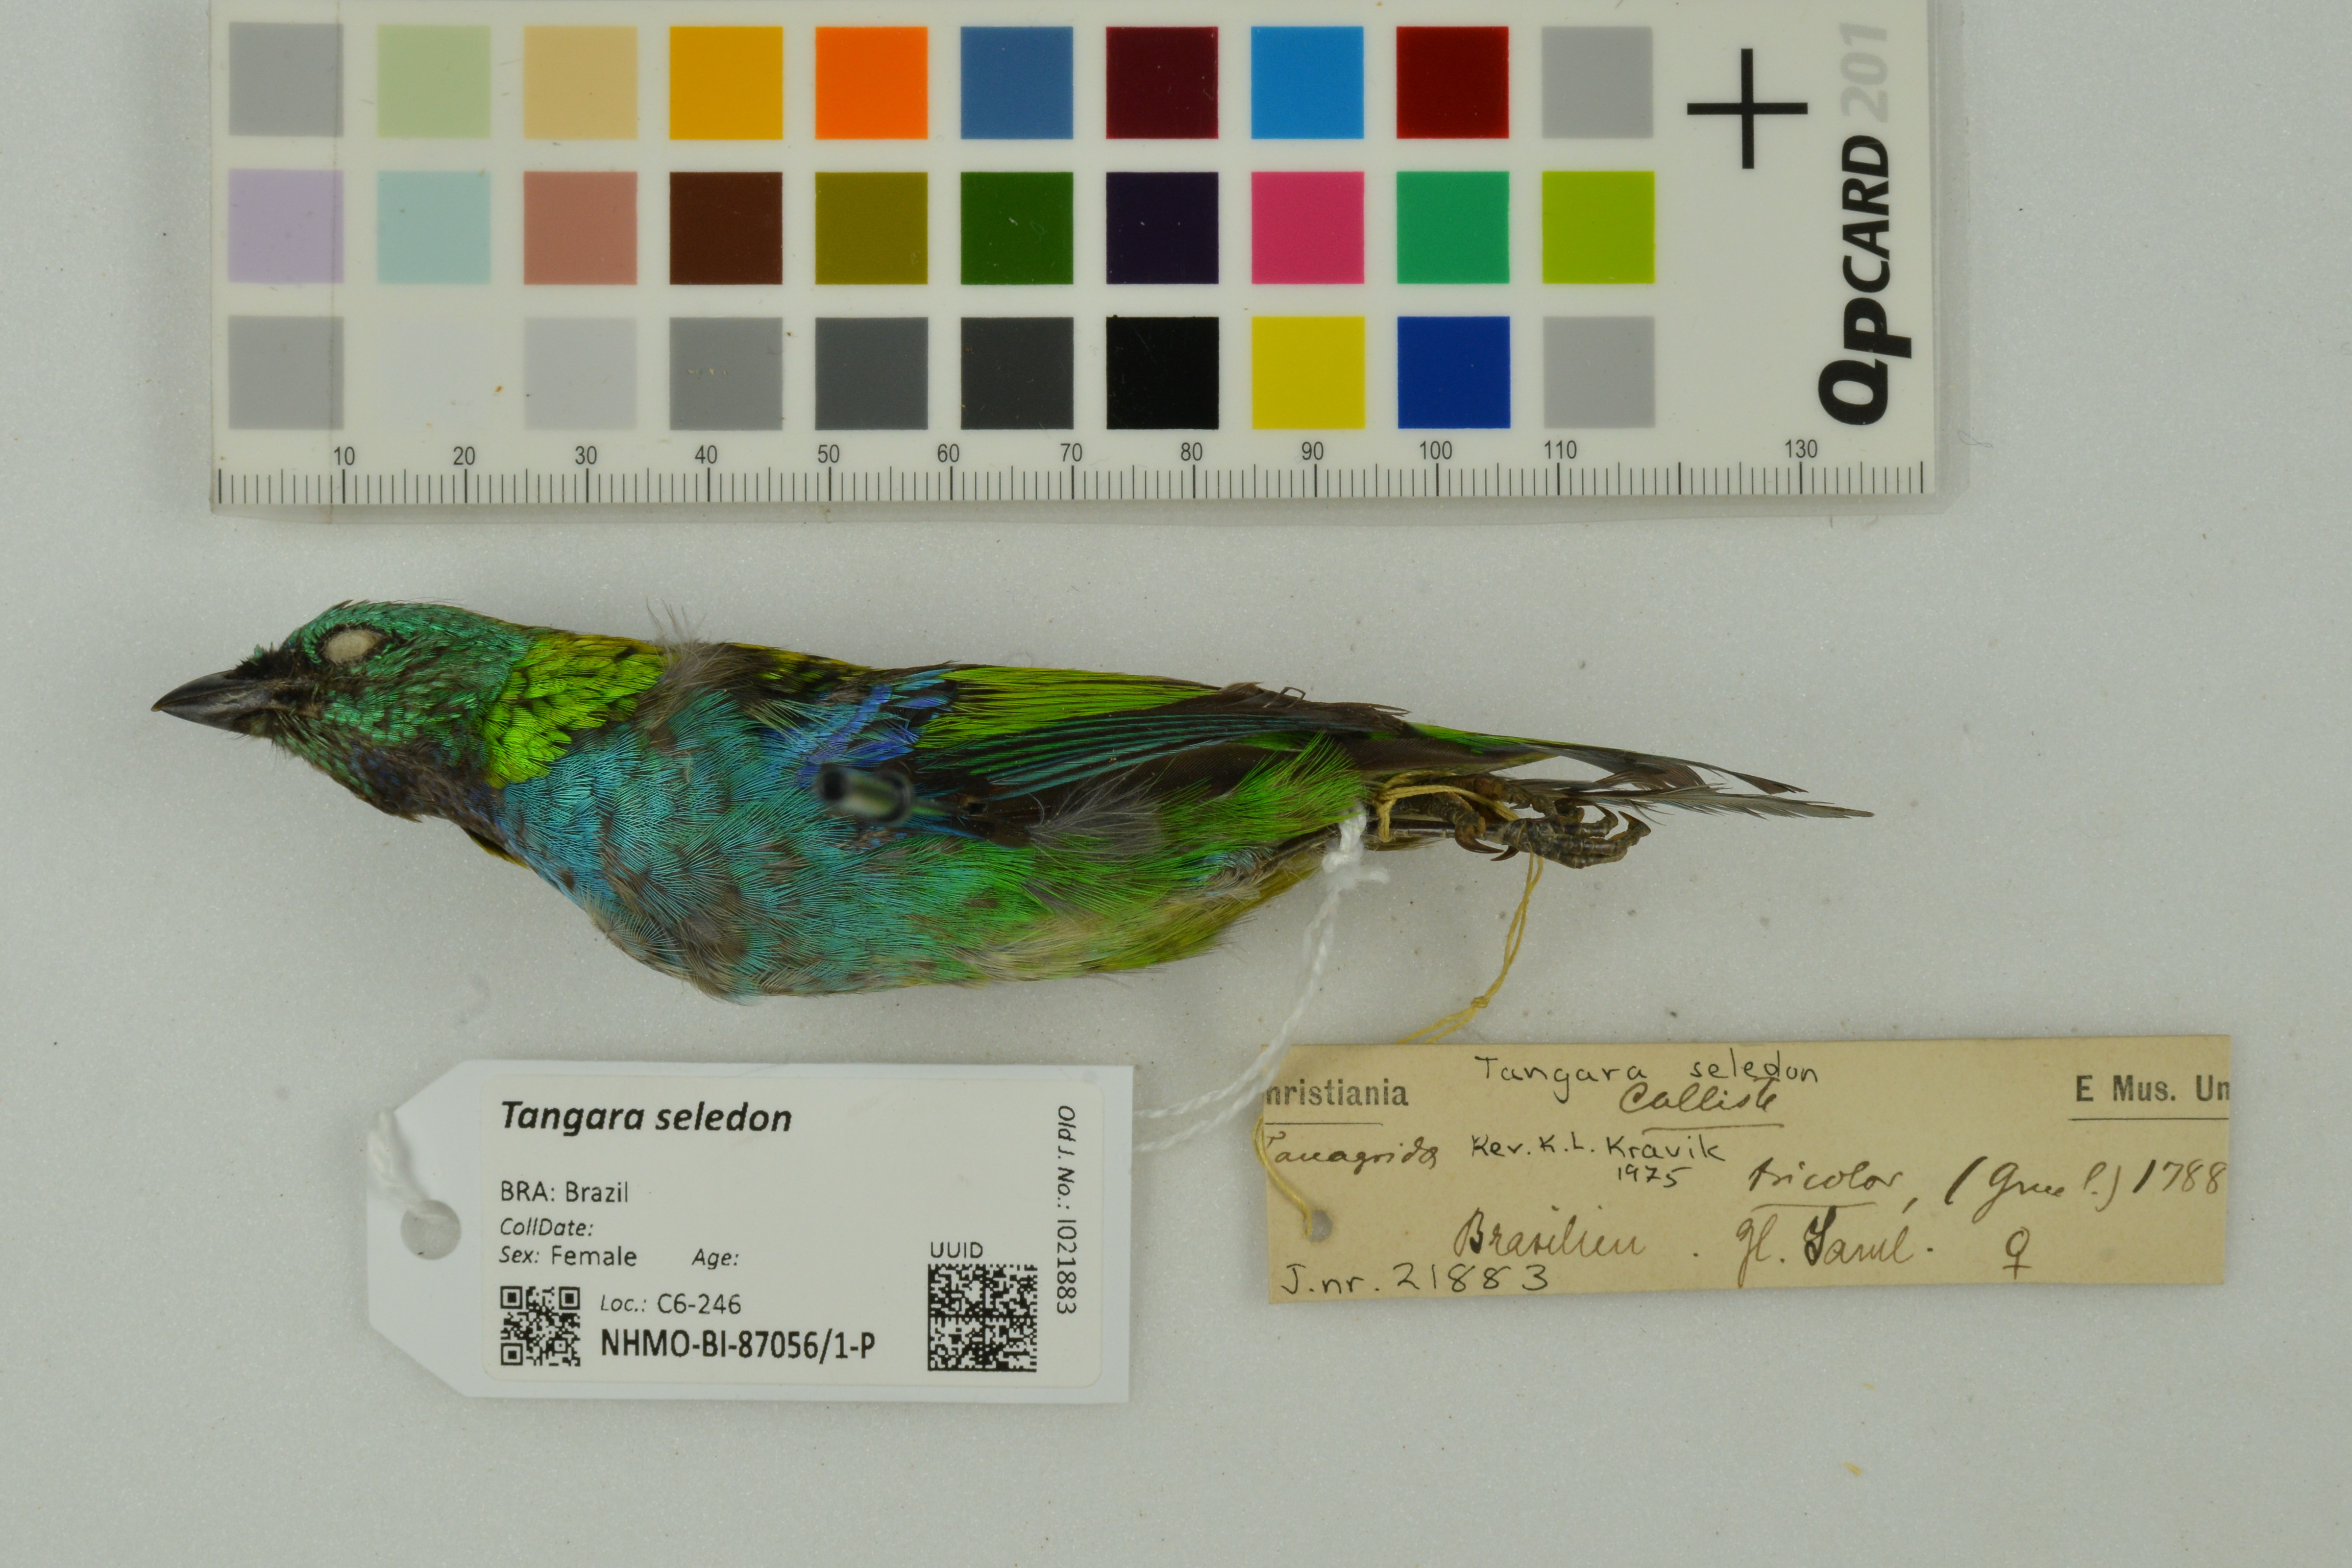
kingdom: Animalia
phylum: Chordata
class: Aves
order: Passeriformes
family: Thraupidae
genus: Tangara
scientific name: Tangara seledon
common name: Green-headed tanager
